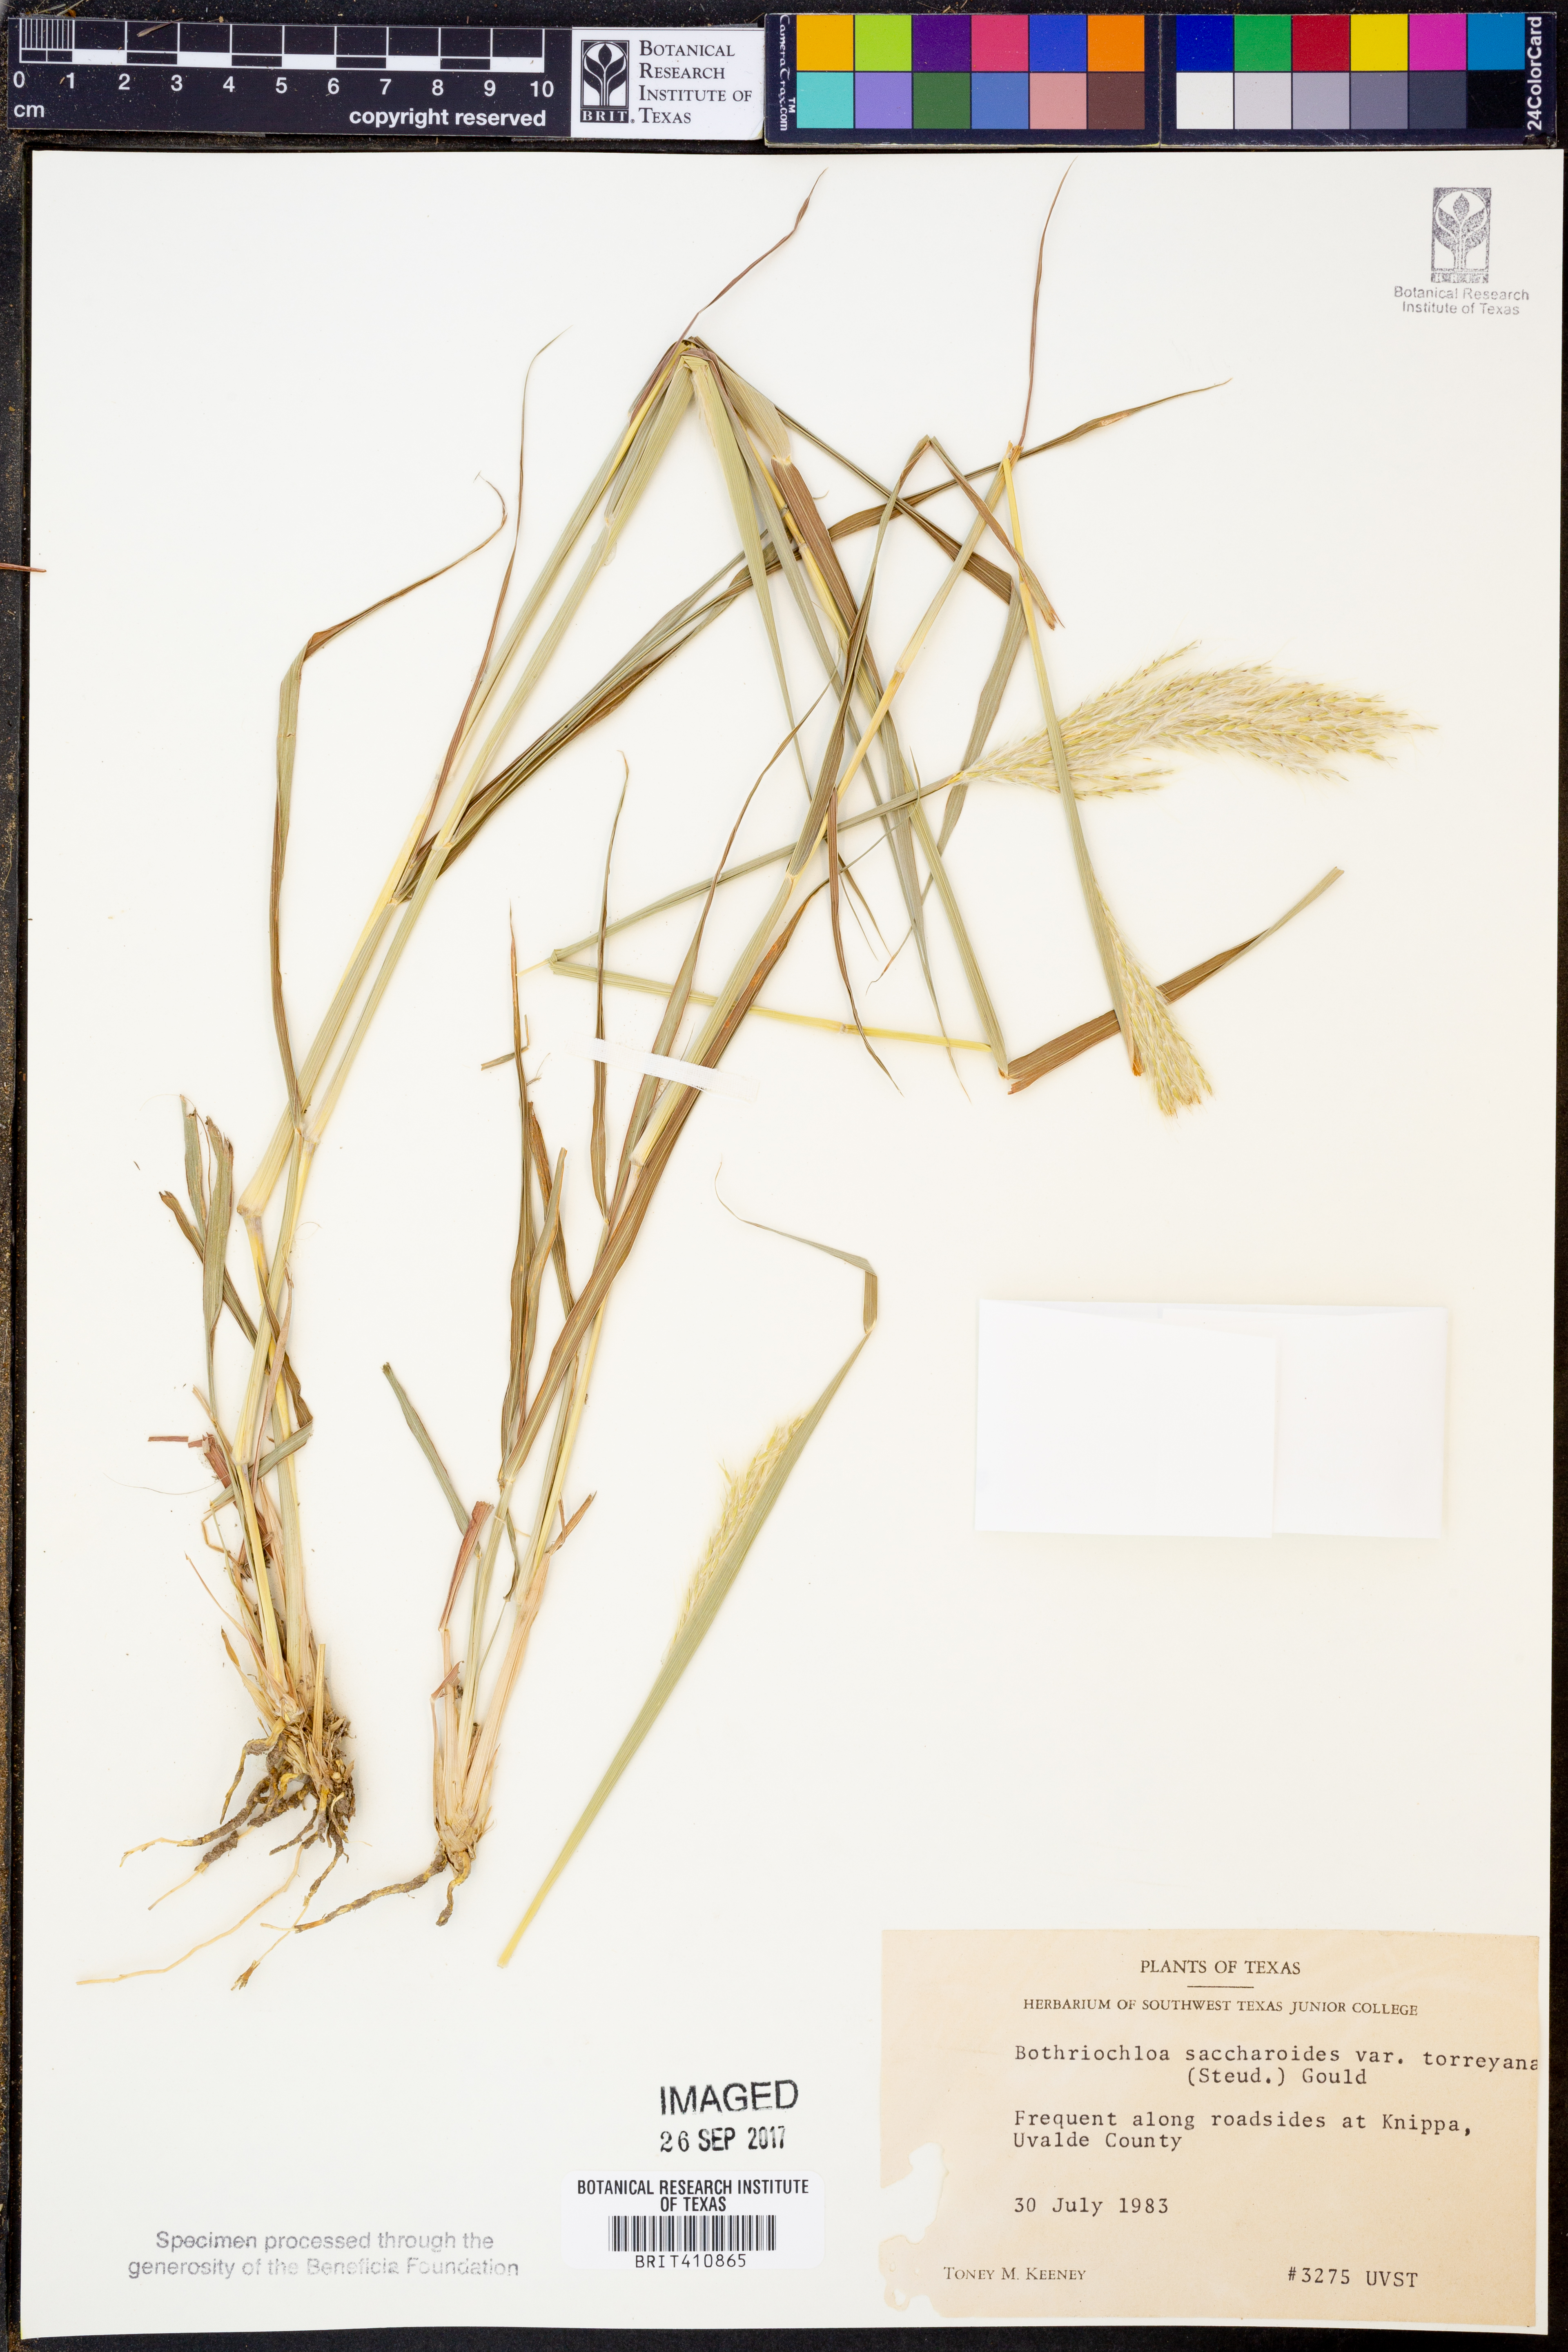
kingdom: Plantae
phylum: Tracheophyta
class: Liliopsida
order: Poales
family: Poaceae
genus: Bothriochloa
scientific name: Bothriochloa torreyana
